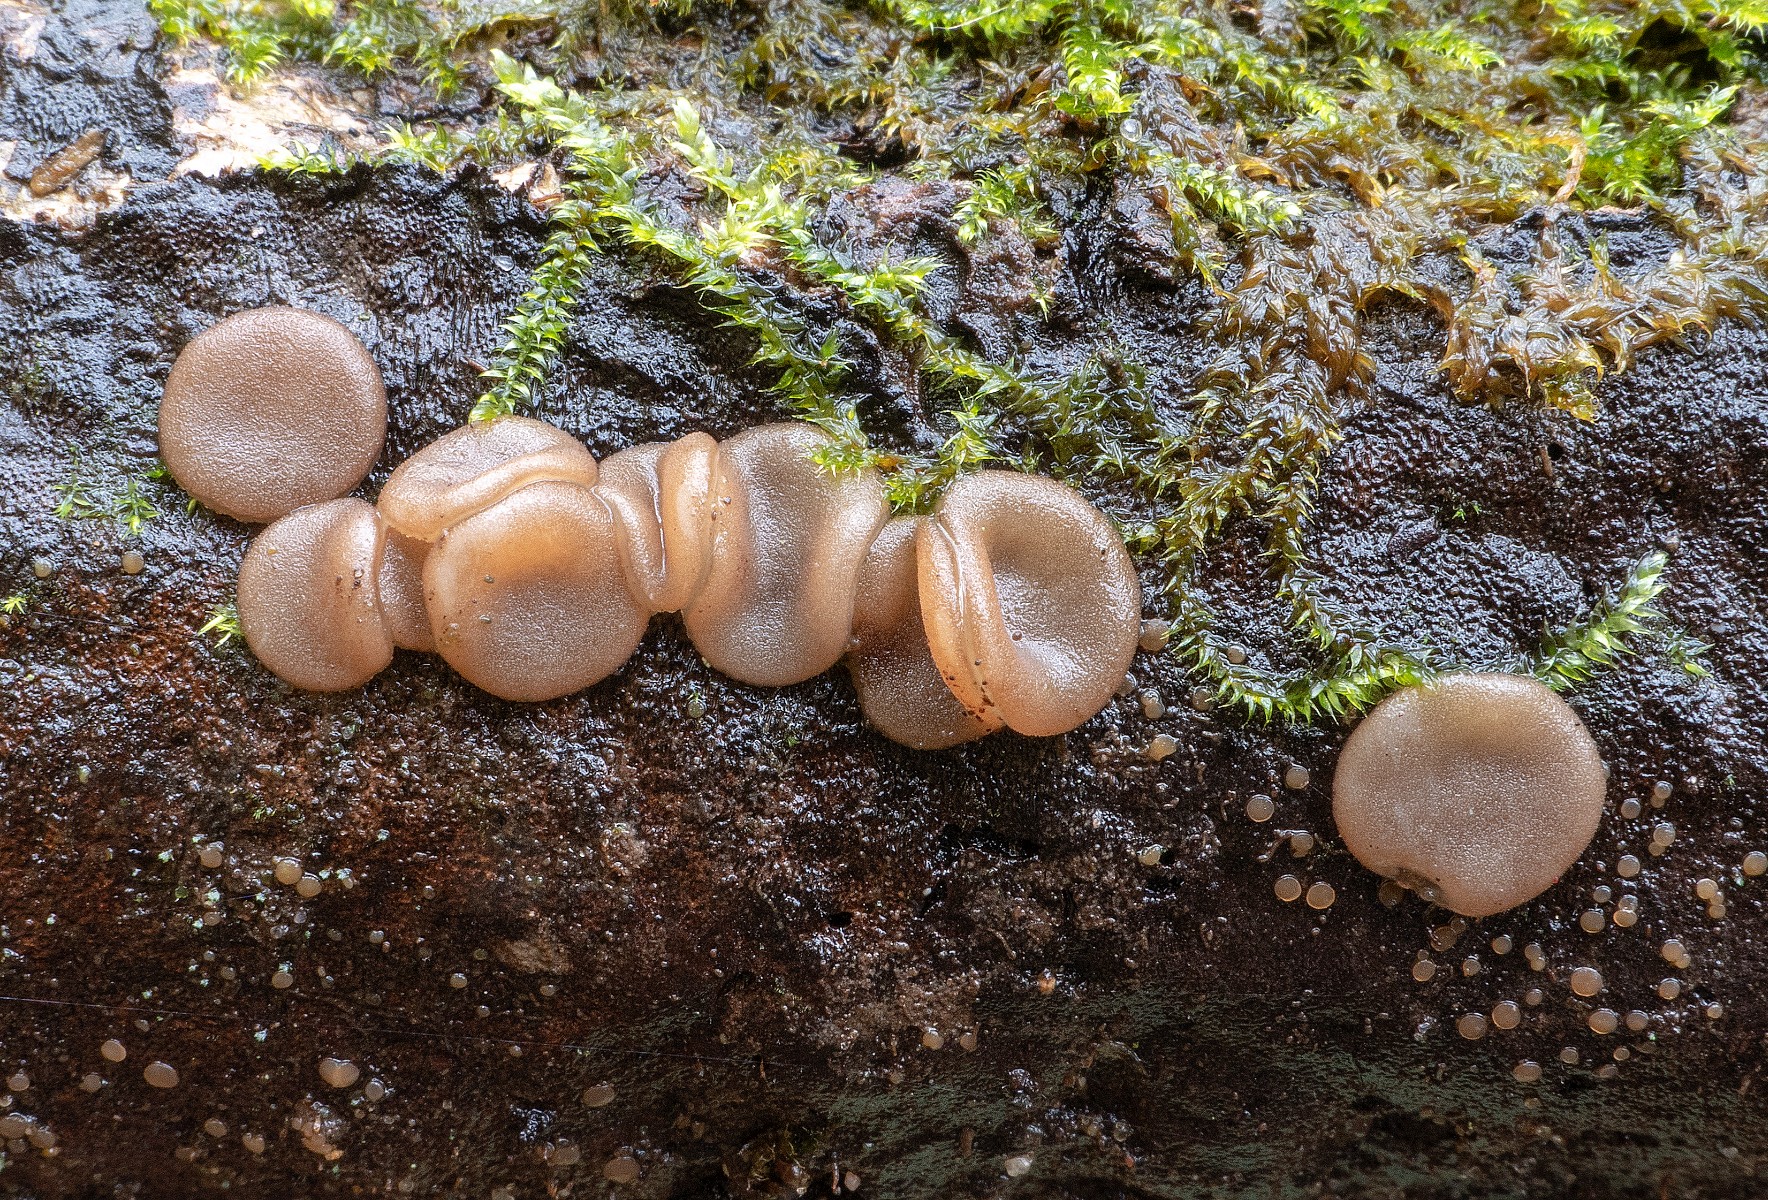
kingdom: Fungi
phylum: Ascomycota
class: Pezizomycetes
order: Pezizales
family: Pezizaceae
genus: Adelphella
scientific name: Adelphella babingtonii
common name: almindelig bækbæger
